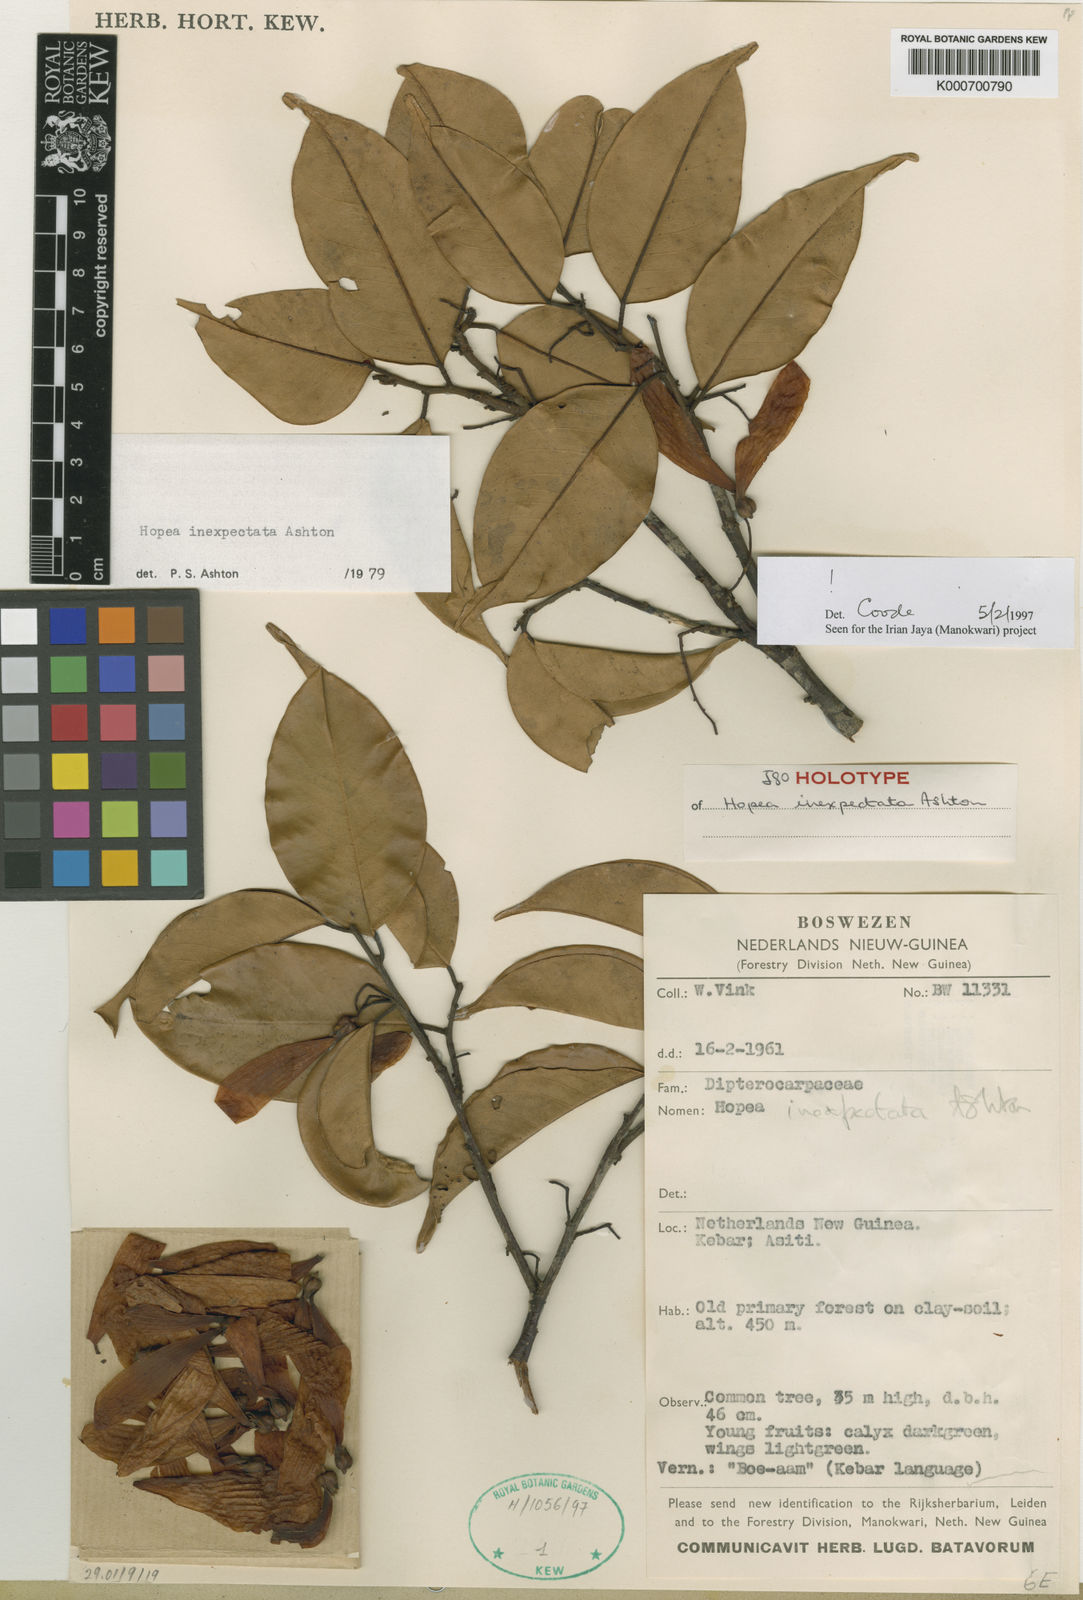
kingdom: Plantae
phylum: Tracheophyta
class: Magnoliopsida
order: Malvales
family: Dipterocarpaceae
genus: Hopea
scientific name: Hopea inexpectata
